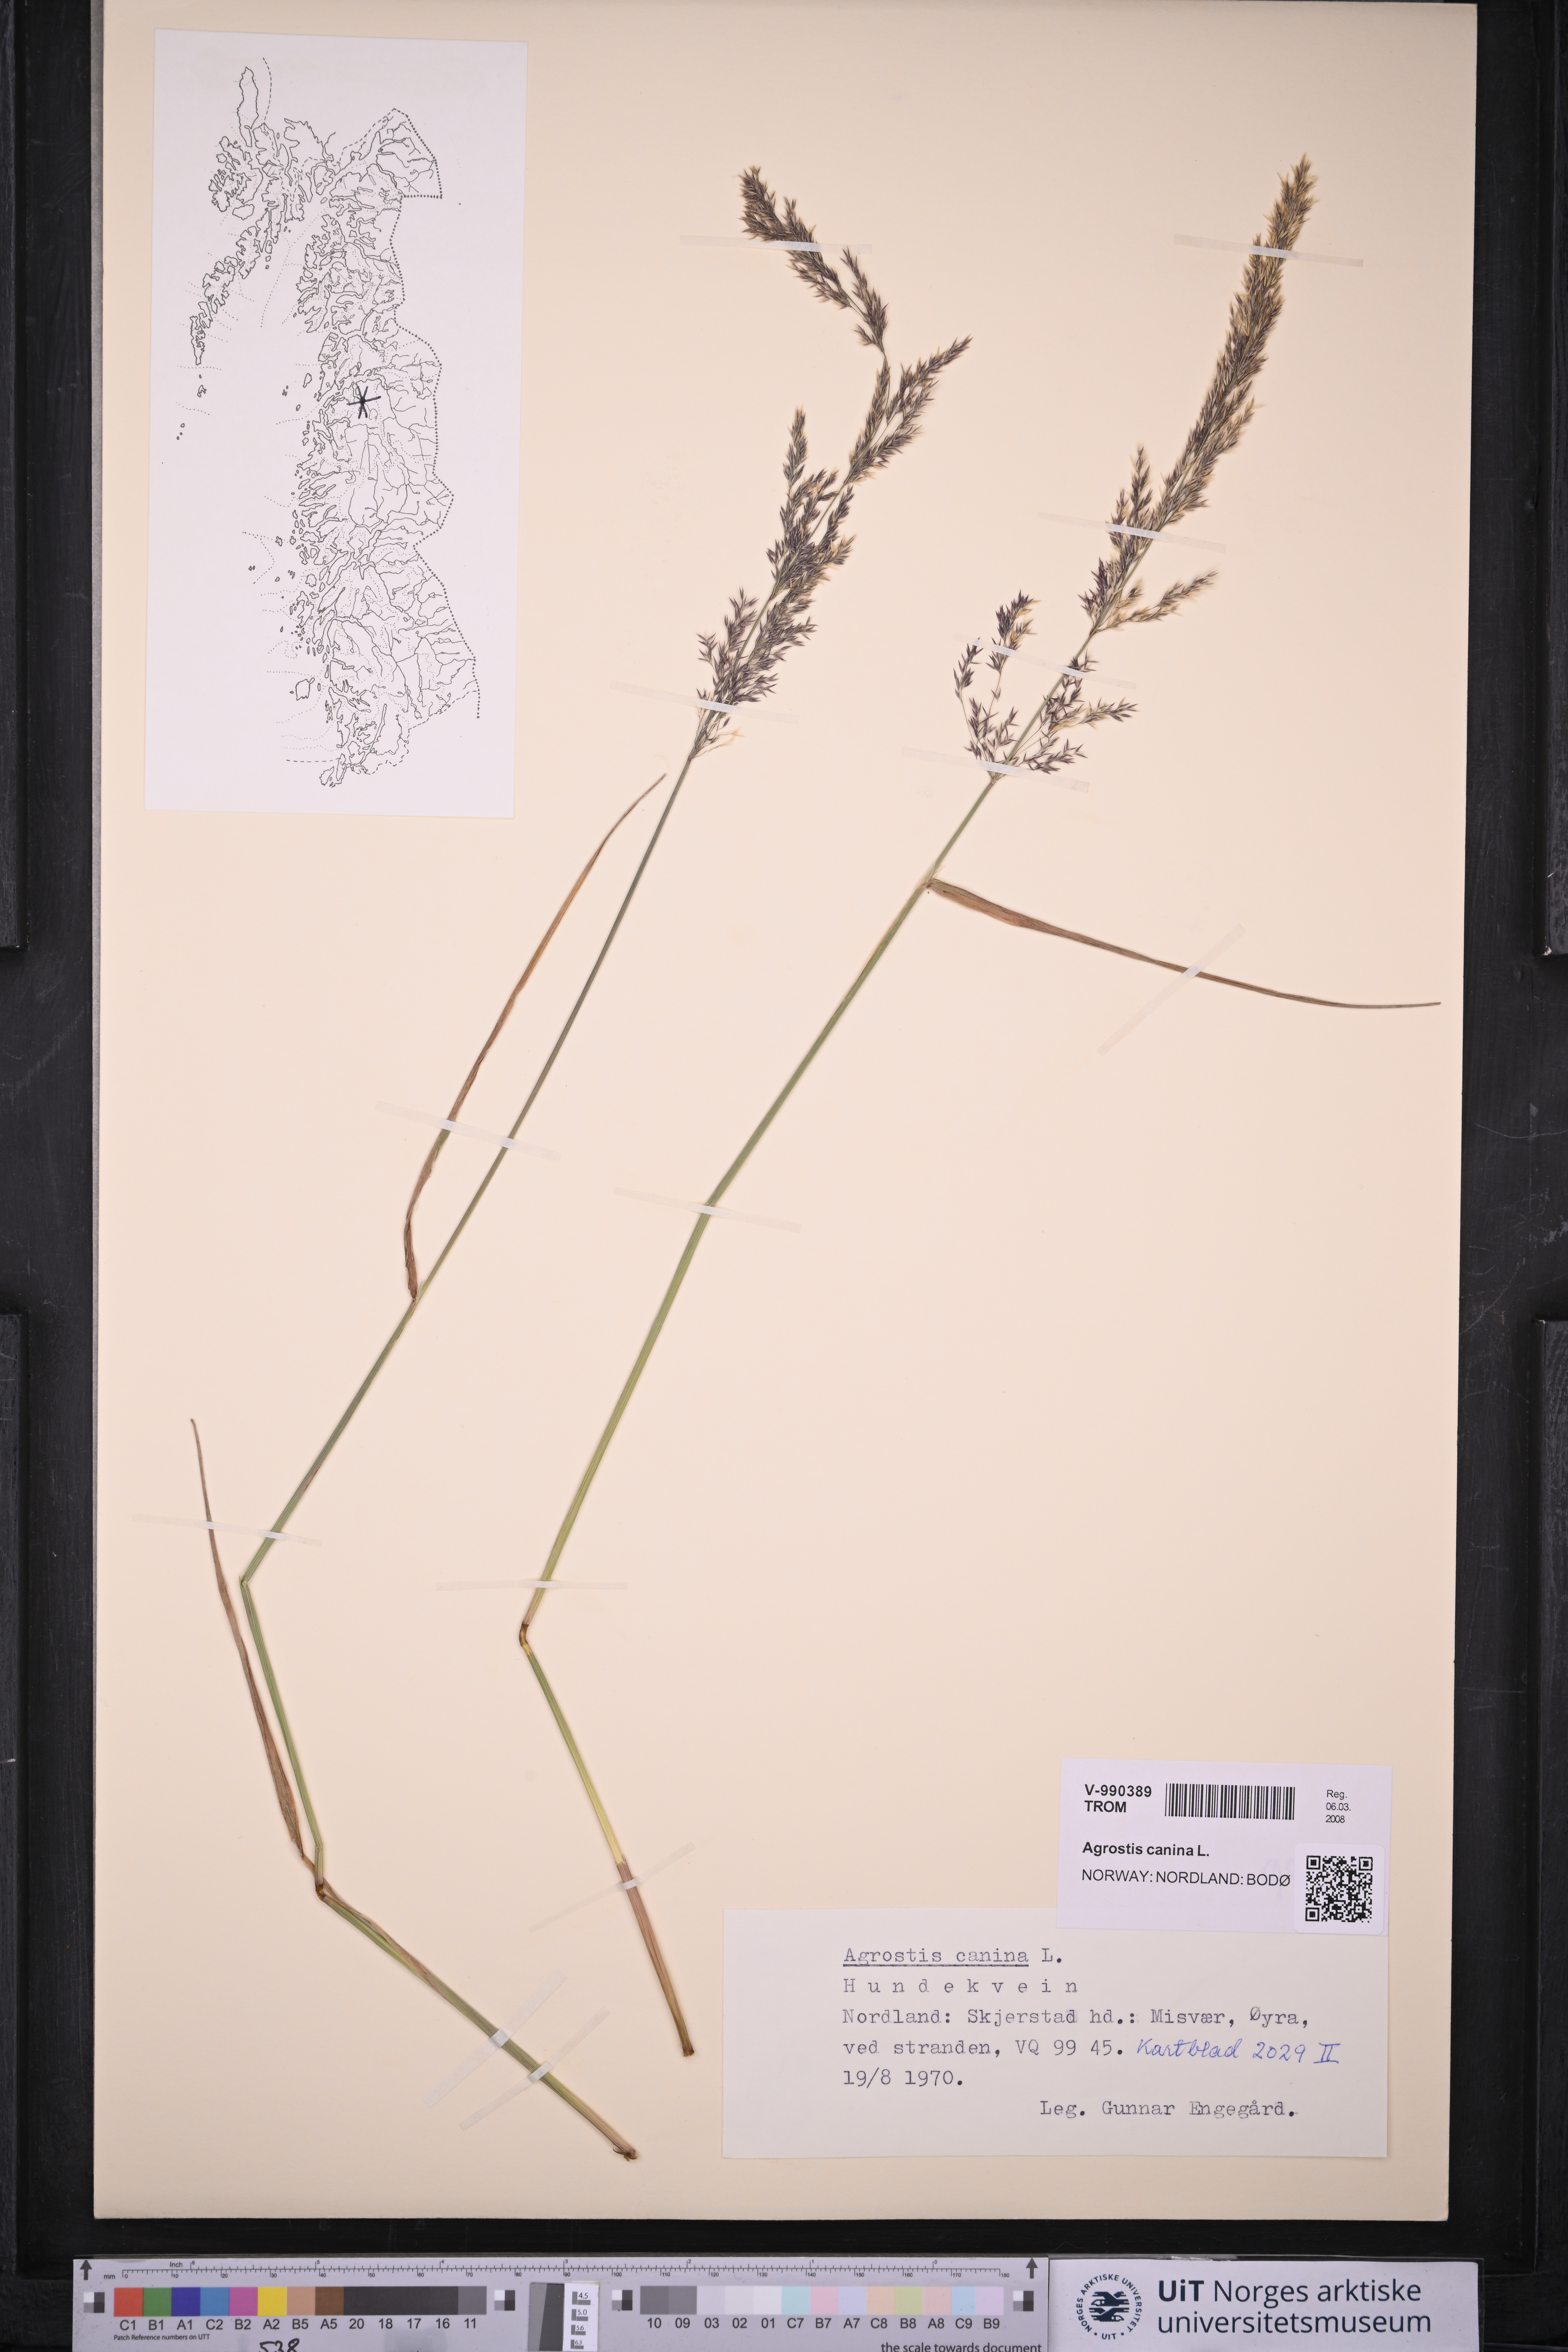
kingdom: Plantae
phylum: Tracheophyta
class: Liliopsida
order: Poales
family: Poaceae
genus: Agrostis
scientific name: Agrostis canina
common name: Velvet bent
